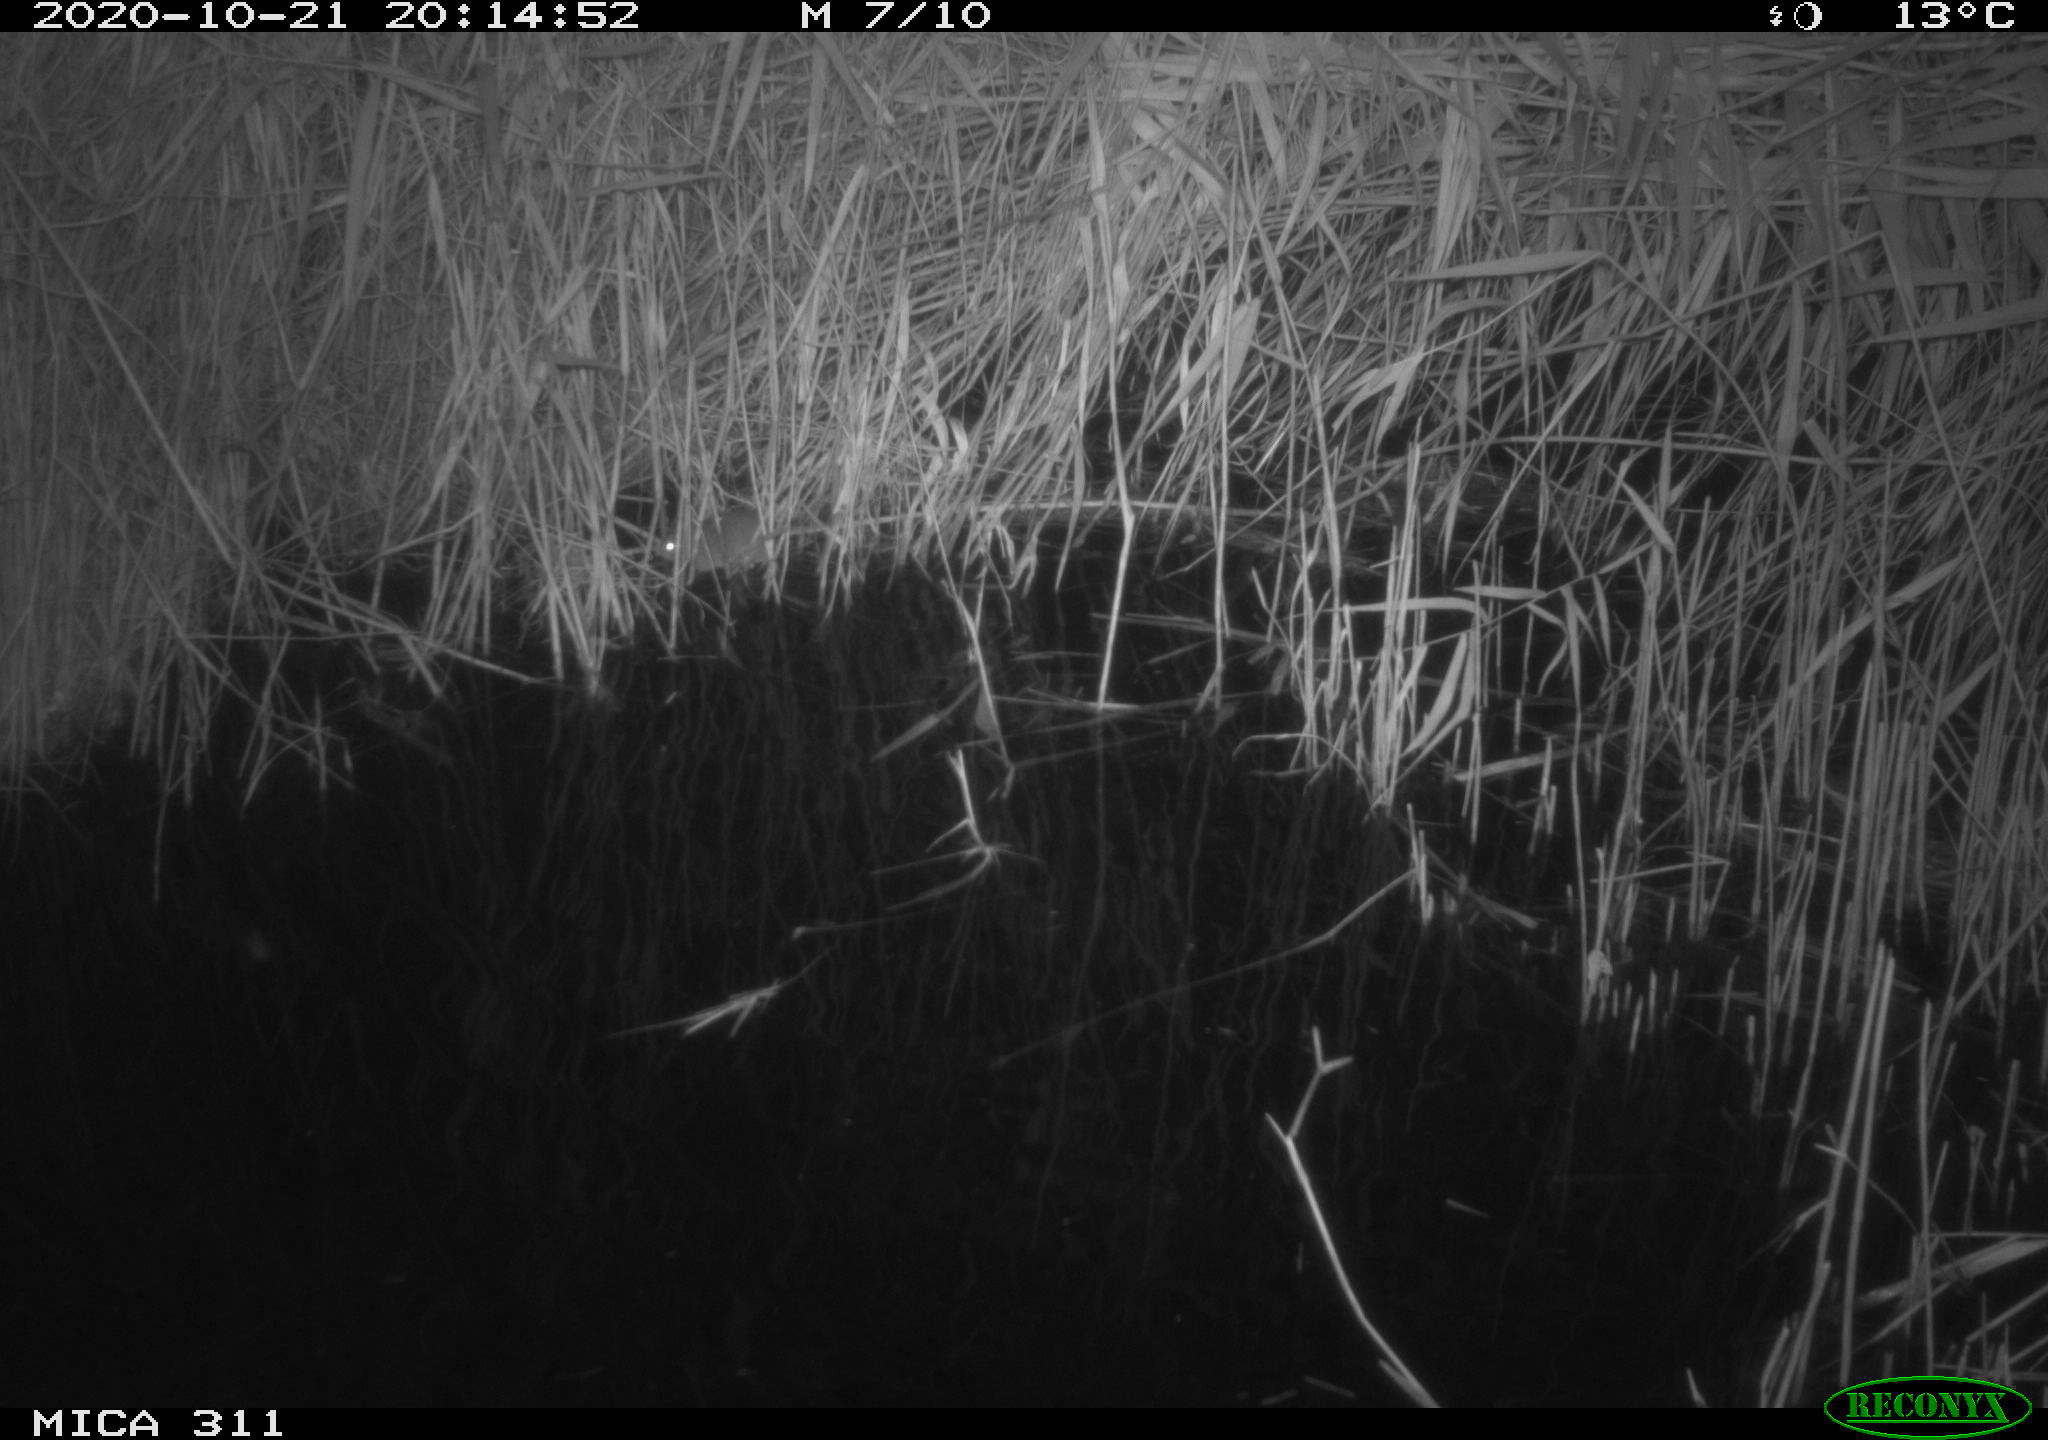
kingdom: Animalia
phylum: Chordata
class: Mammalia
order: Rodentia
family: Muridae
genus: Rattus
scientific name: Rattus norvegicus
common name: Brown rat
